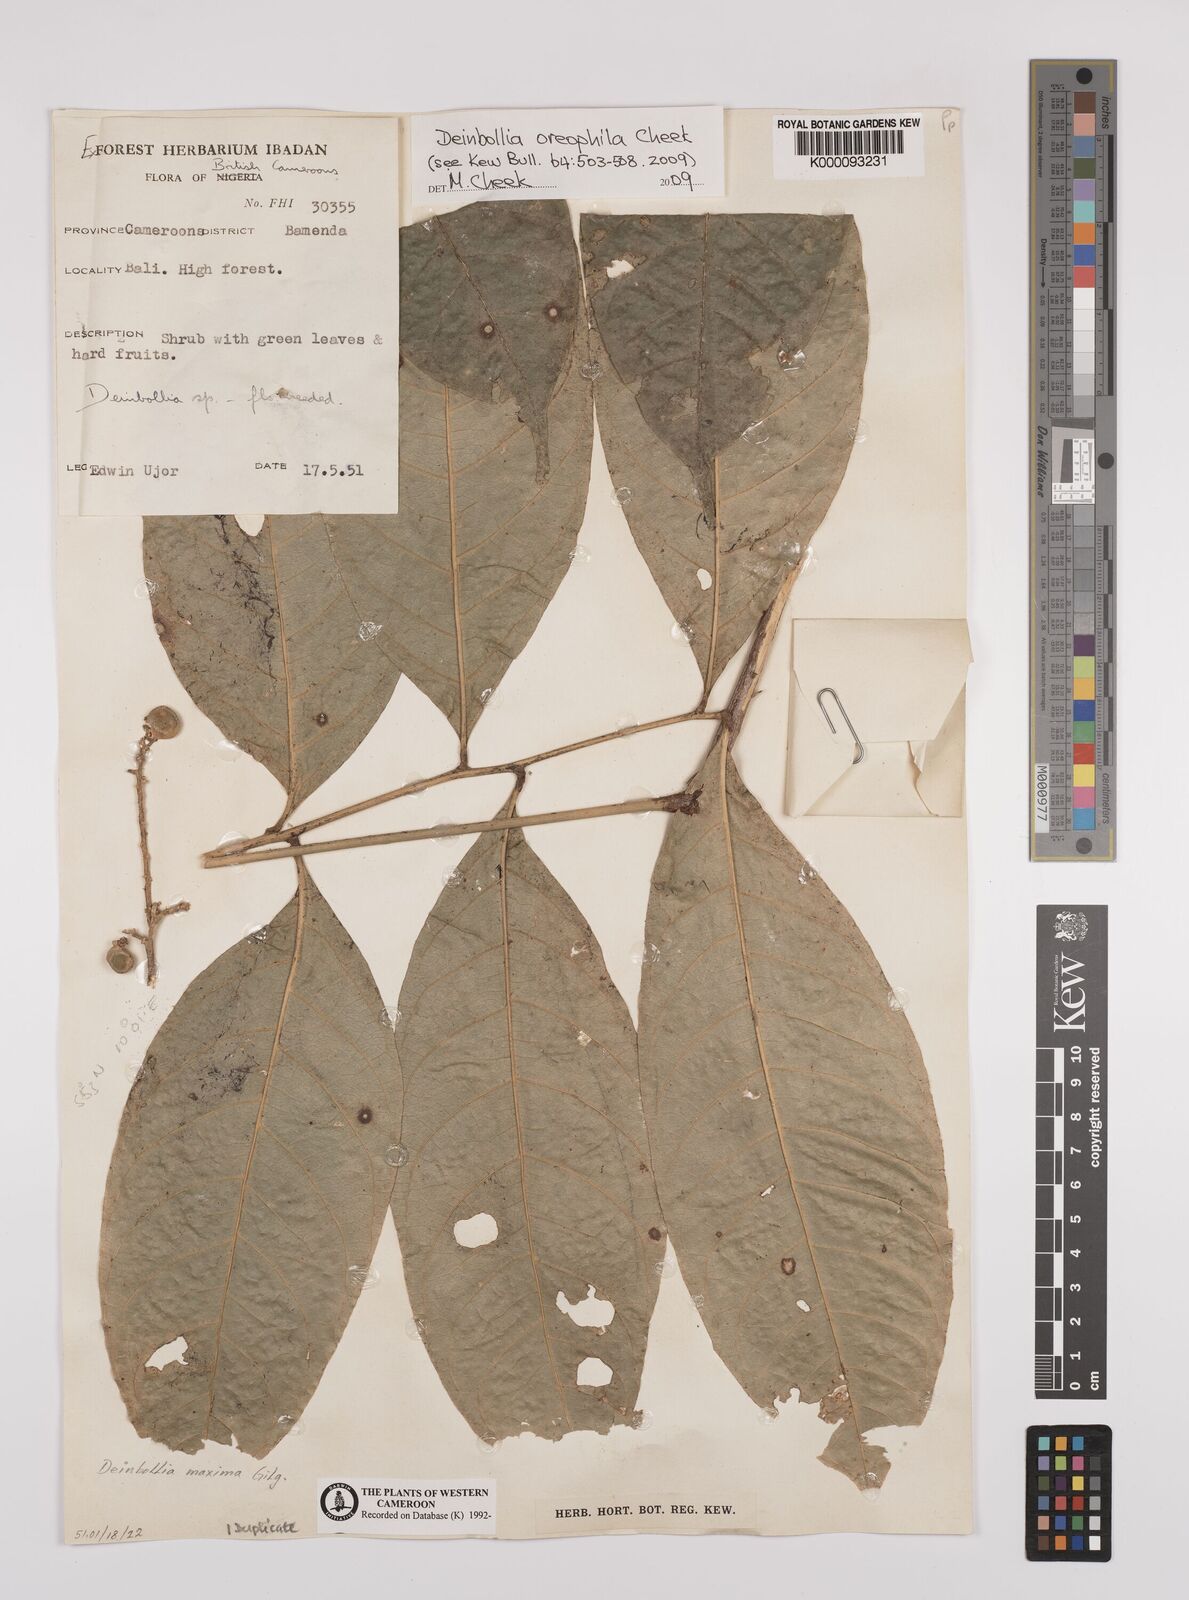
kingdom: Plantae
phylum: Tracheophyta
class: Magnoliopsida
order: Sapindales
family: Sapindaceae
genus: Deinbollia
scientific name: Deinbollia oreophila
